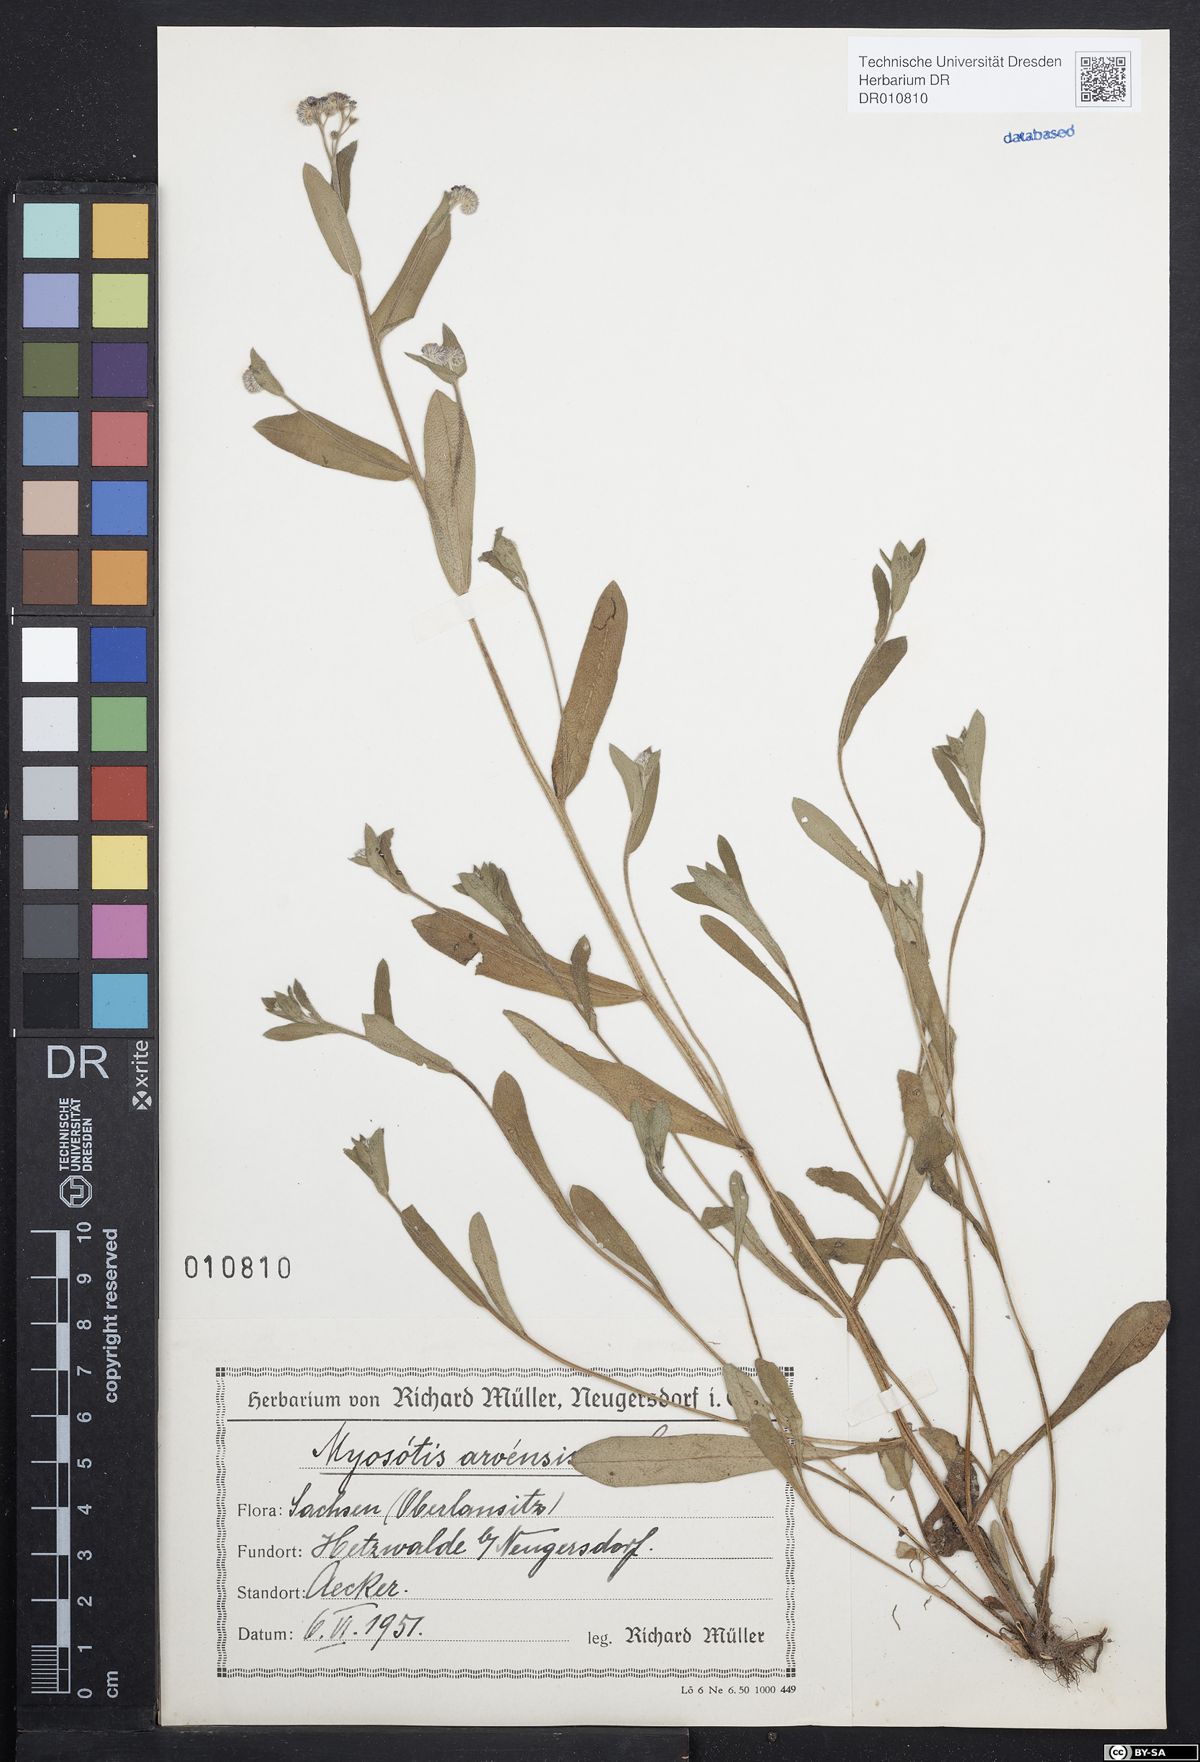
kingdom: Plantae
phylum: Tracheophyta
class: Magnoliopsida
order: Boraginales
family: Boraginaceae
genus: Myosotis
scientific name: Myosotis arvensis
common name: Field forget-me-not
